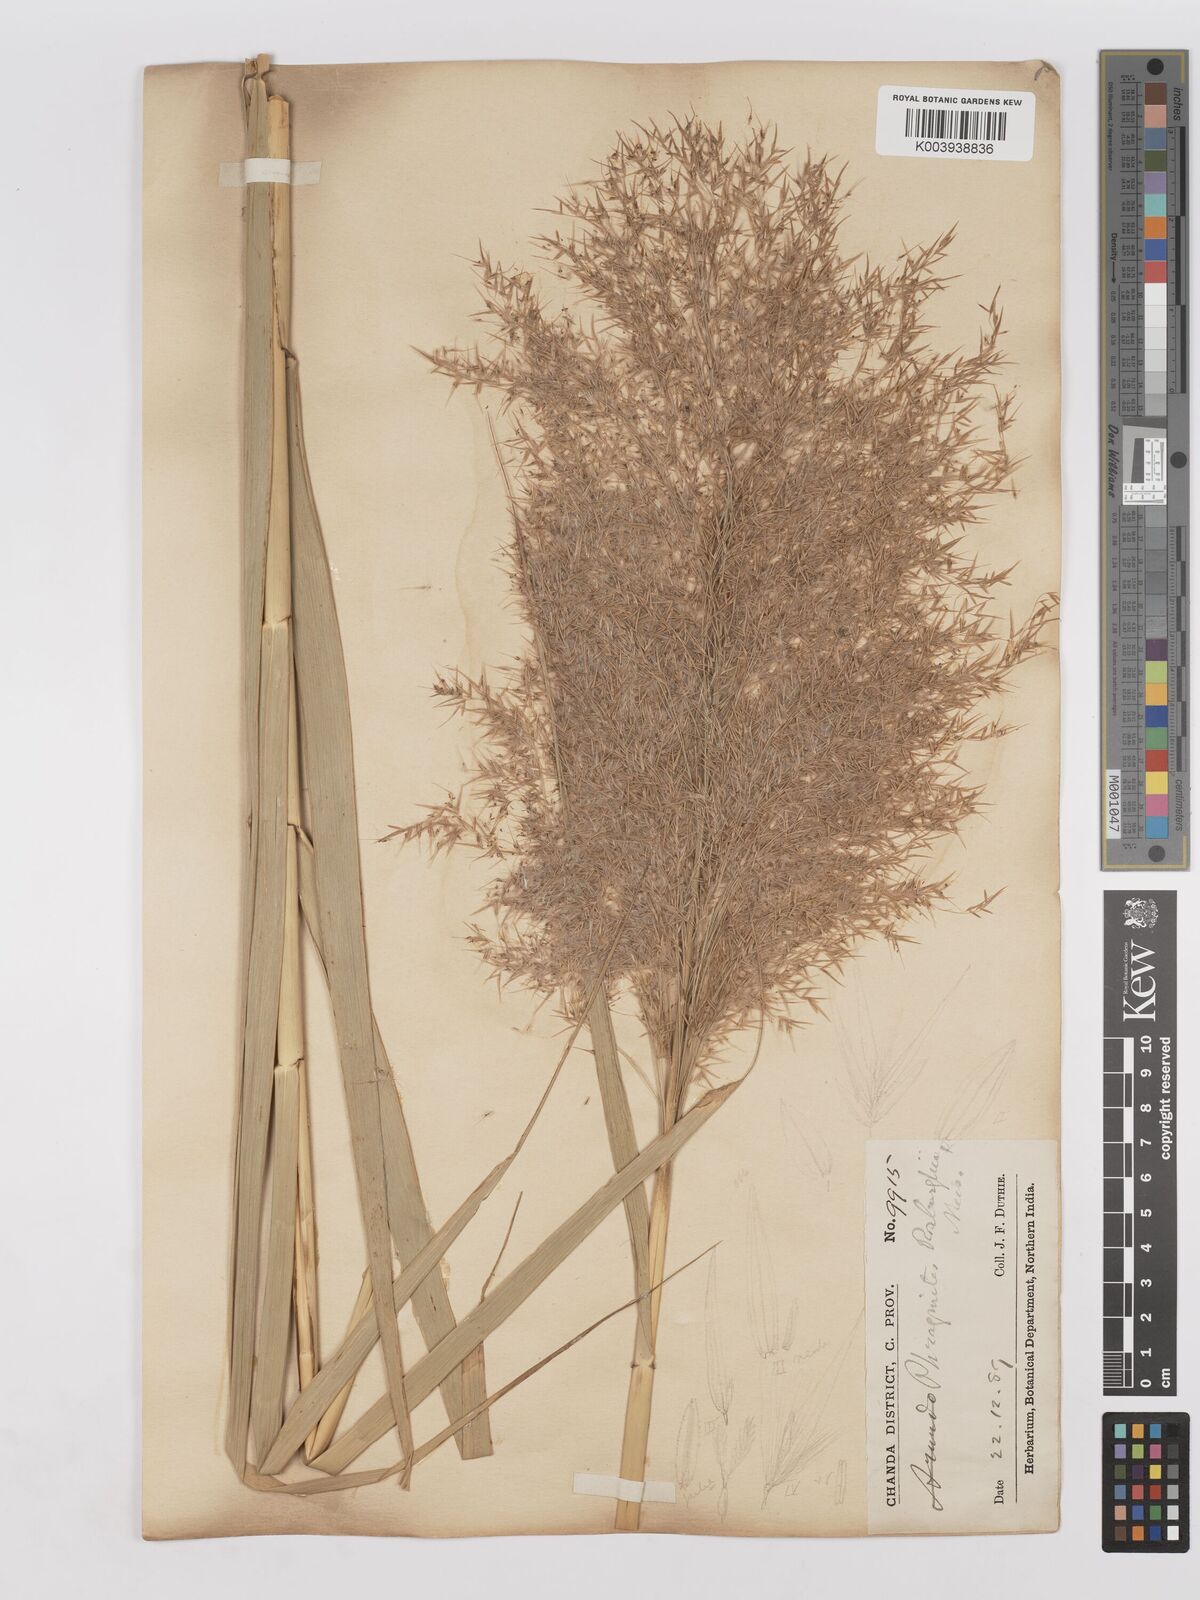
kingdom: Plantae
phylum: Tracheophyta
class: Liliopsida
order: Poales
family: Poaceae
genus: Phragmites
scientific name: Phragmites karka
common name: Tropical reed
